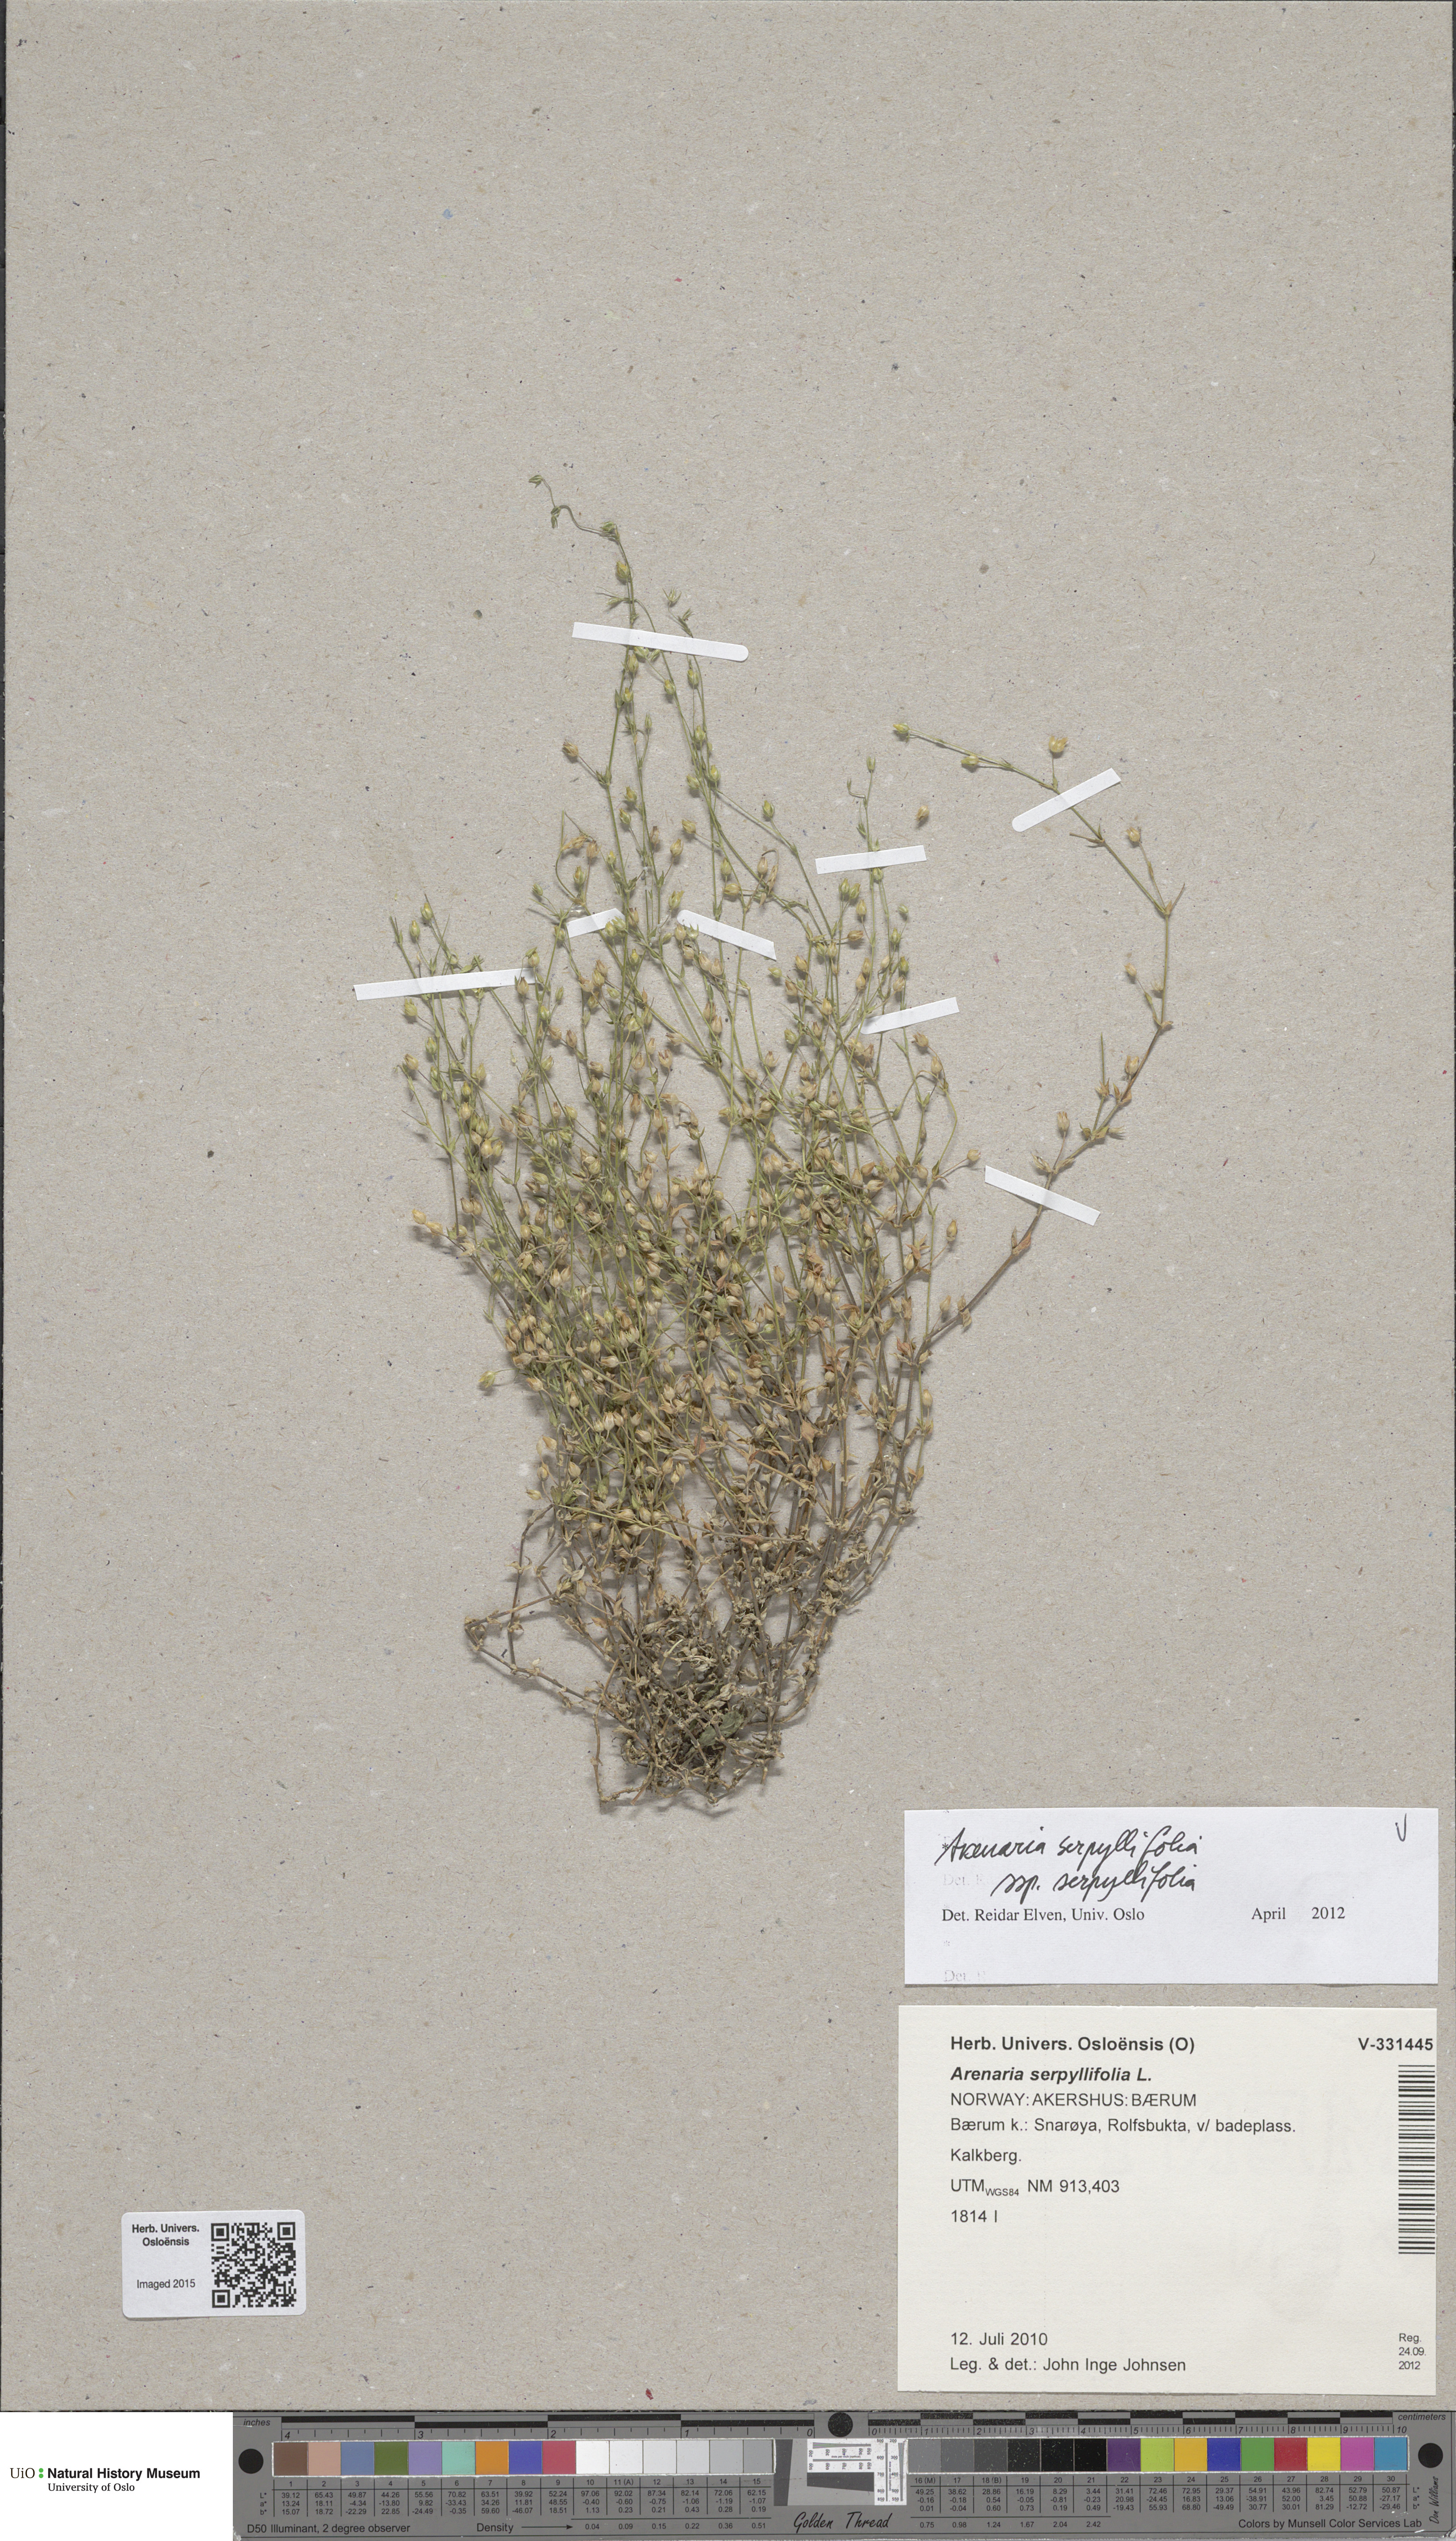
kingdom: Plantae
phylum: Tracheophyta
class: Magnoliopsida
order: Caryophyllales
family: Caryophyllaceae
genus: Arenaria
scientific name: Arenaria serpyllifolia
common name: Thyme-leaved sandwort
